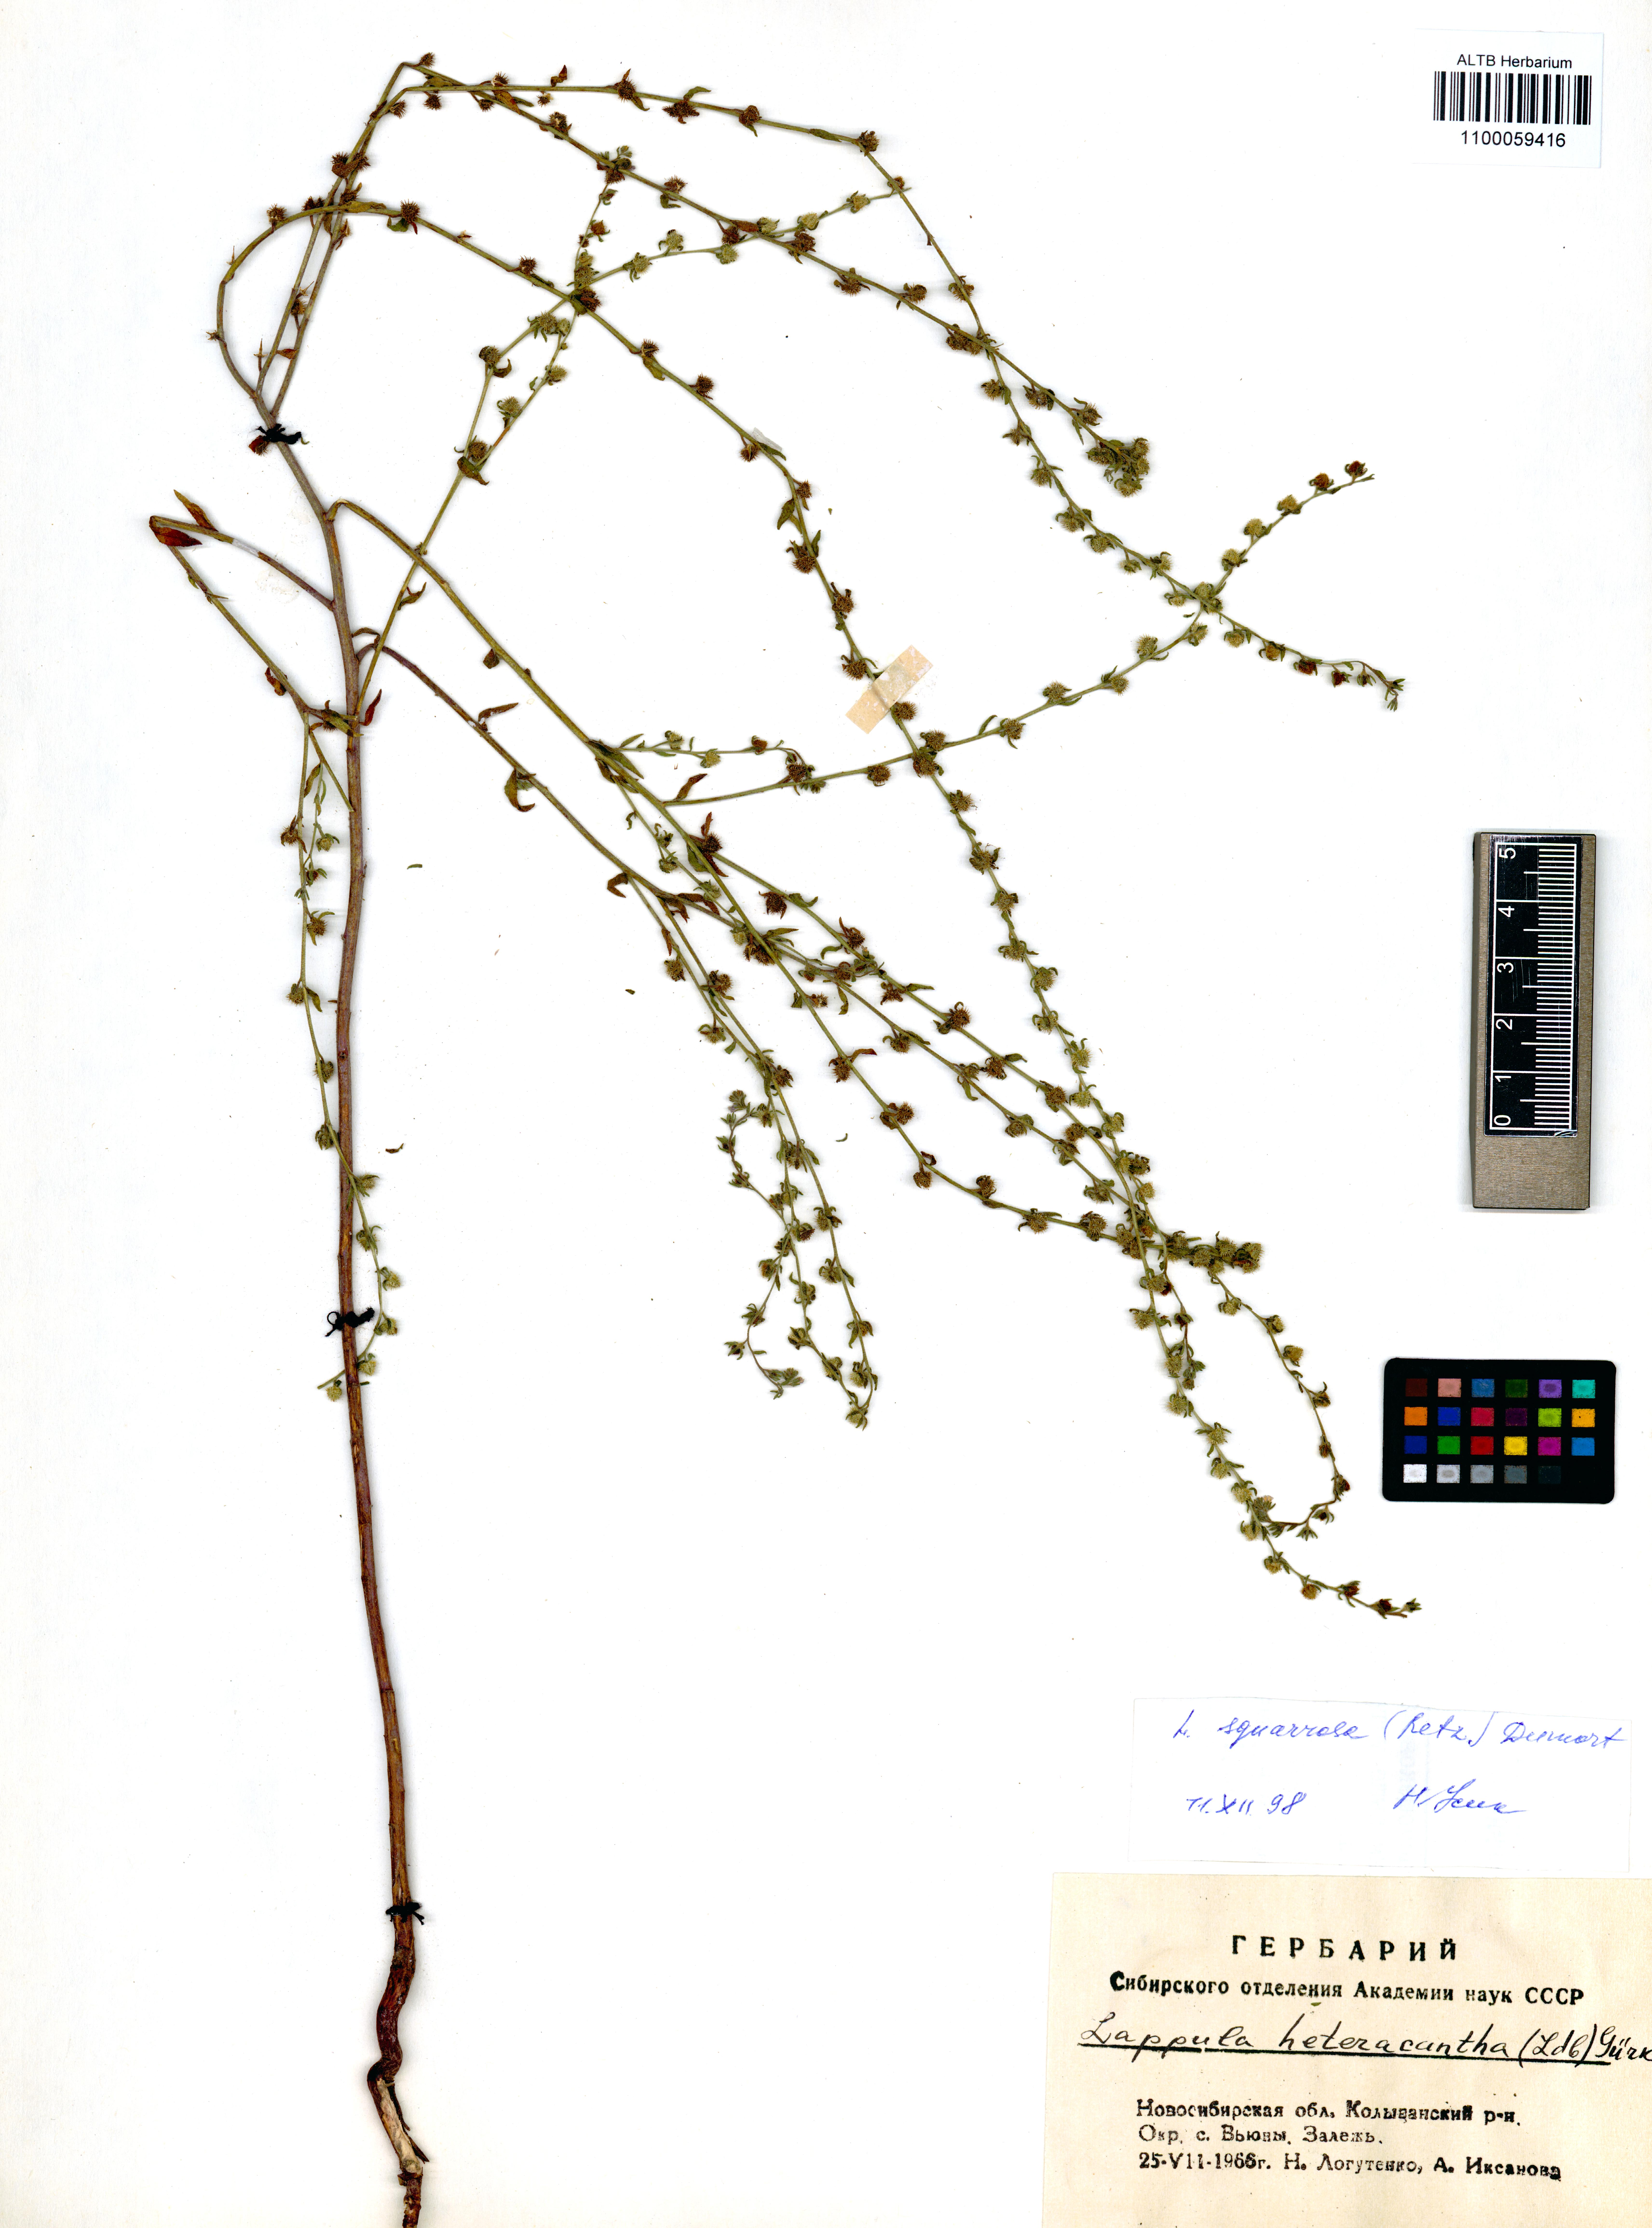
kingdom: Plantae
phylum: Tracheophyta
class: Magnoliopsida
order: Boraginales
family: Boraginaceae
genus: Lappula
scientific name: Lappula squarrosa
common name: European stickseed
